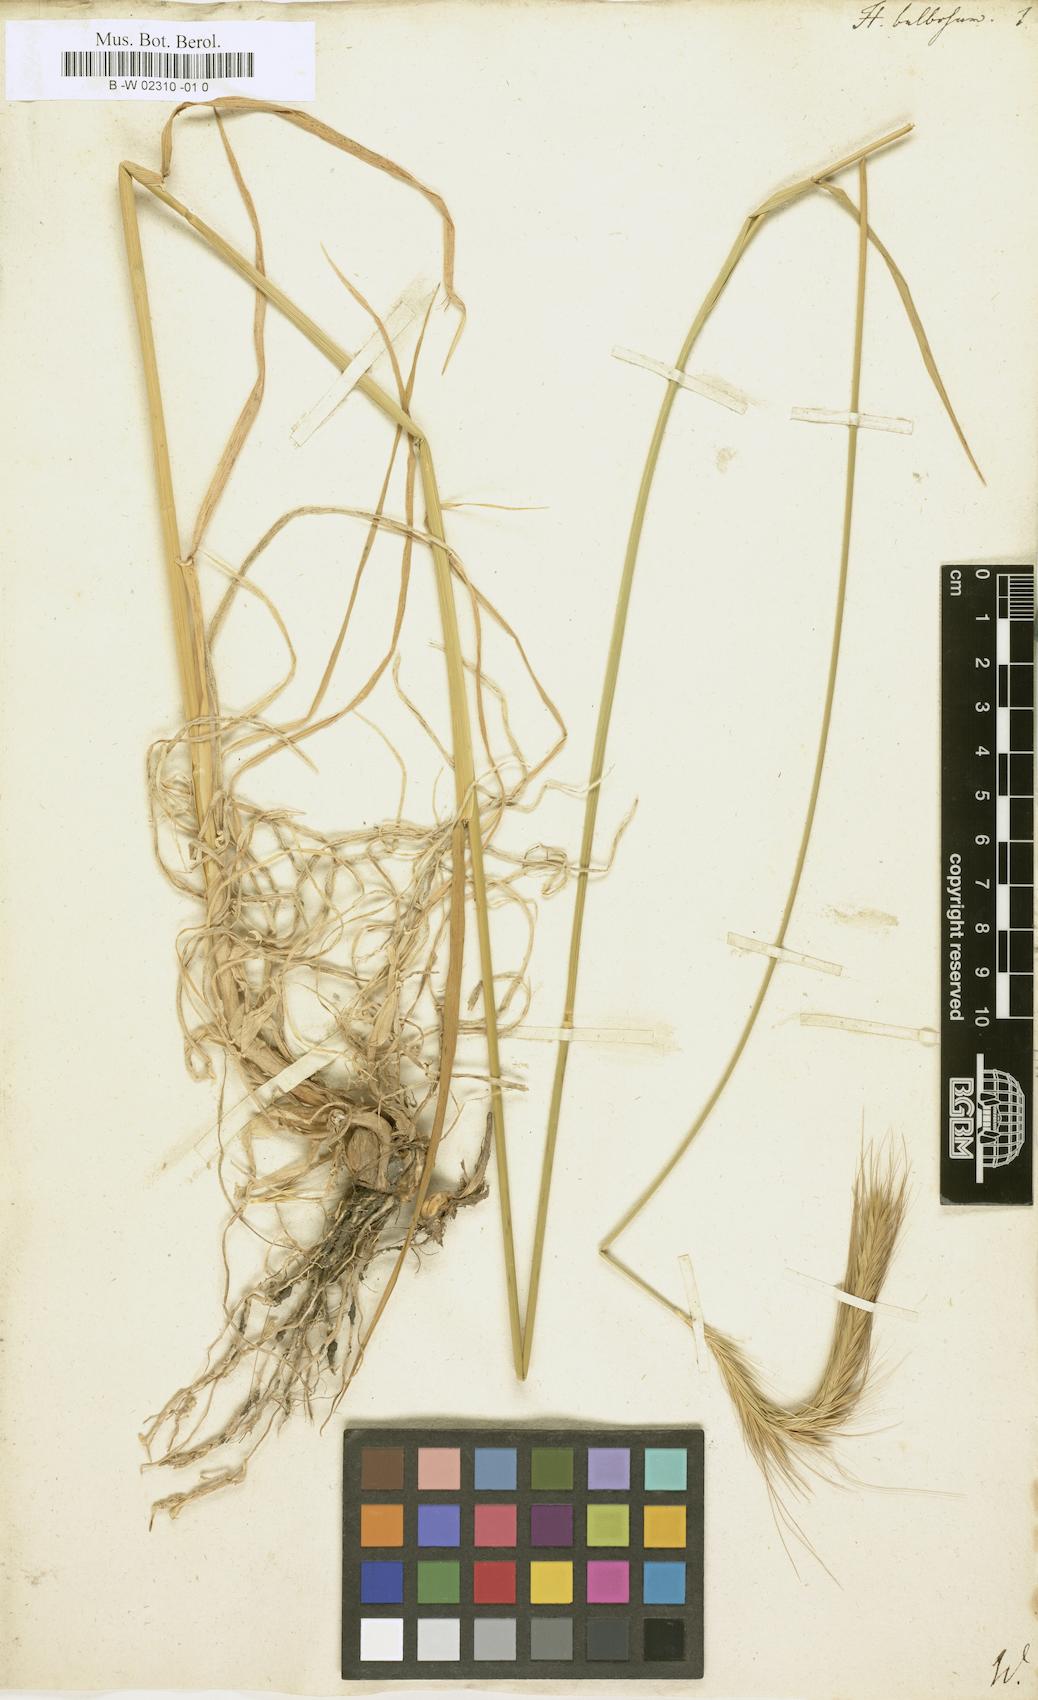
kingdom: Plantae
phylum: Tracheophyta
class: Liliopsida
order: Poales
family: Poaceae
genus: Hordeum
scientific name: Hordeum bulbosum
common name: Bulbous barley
